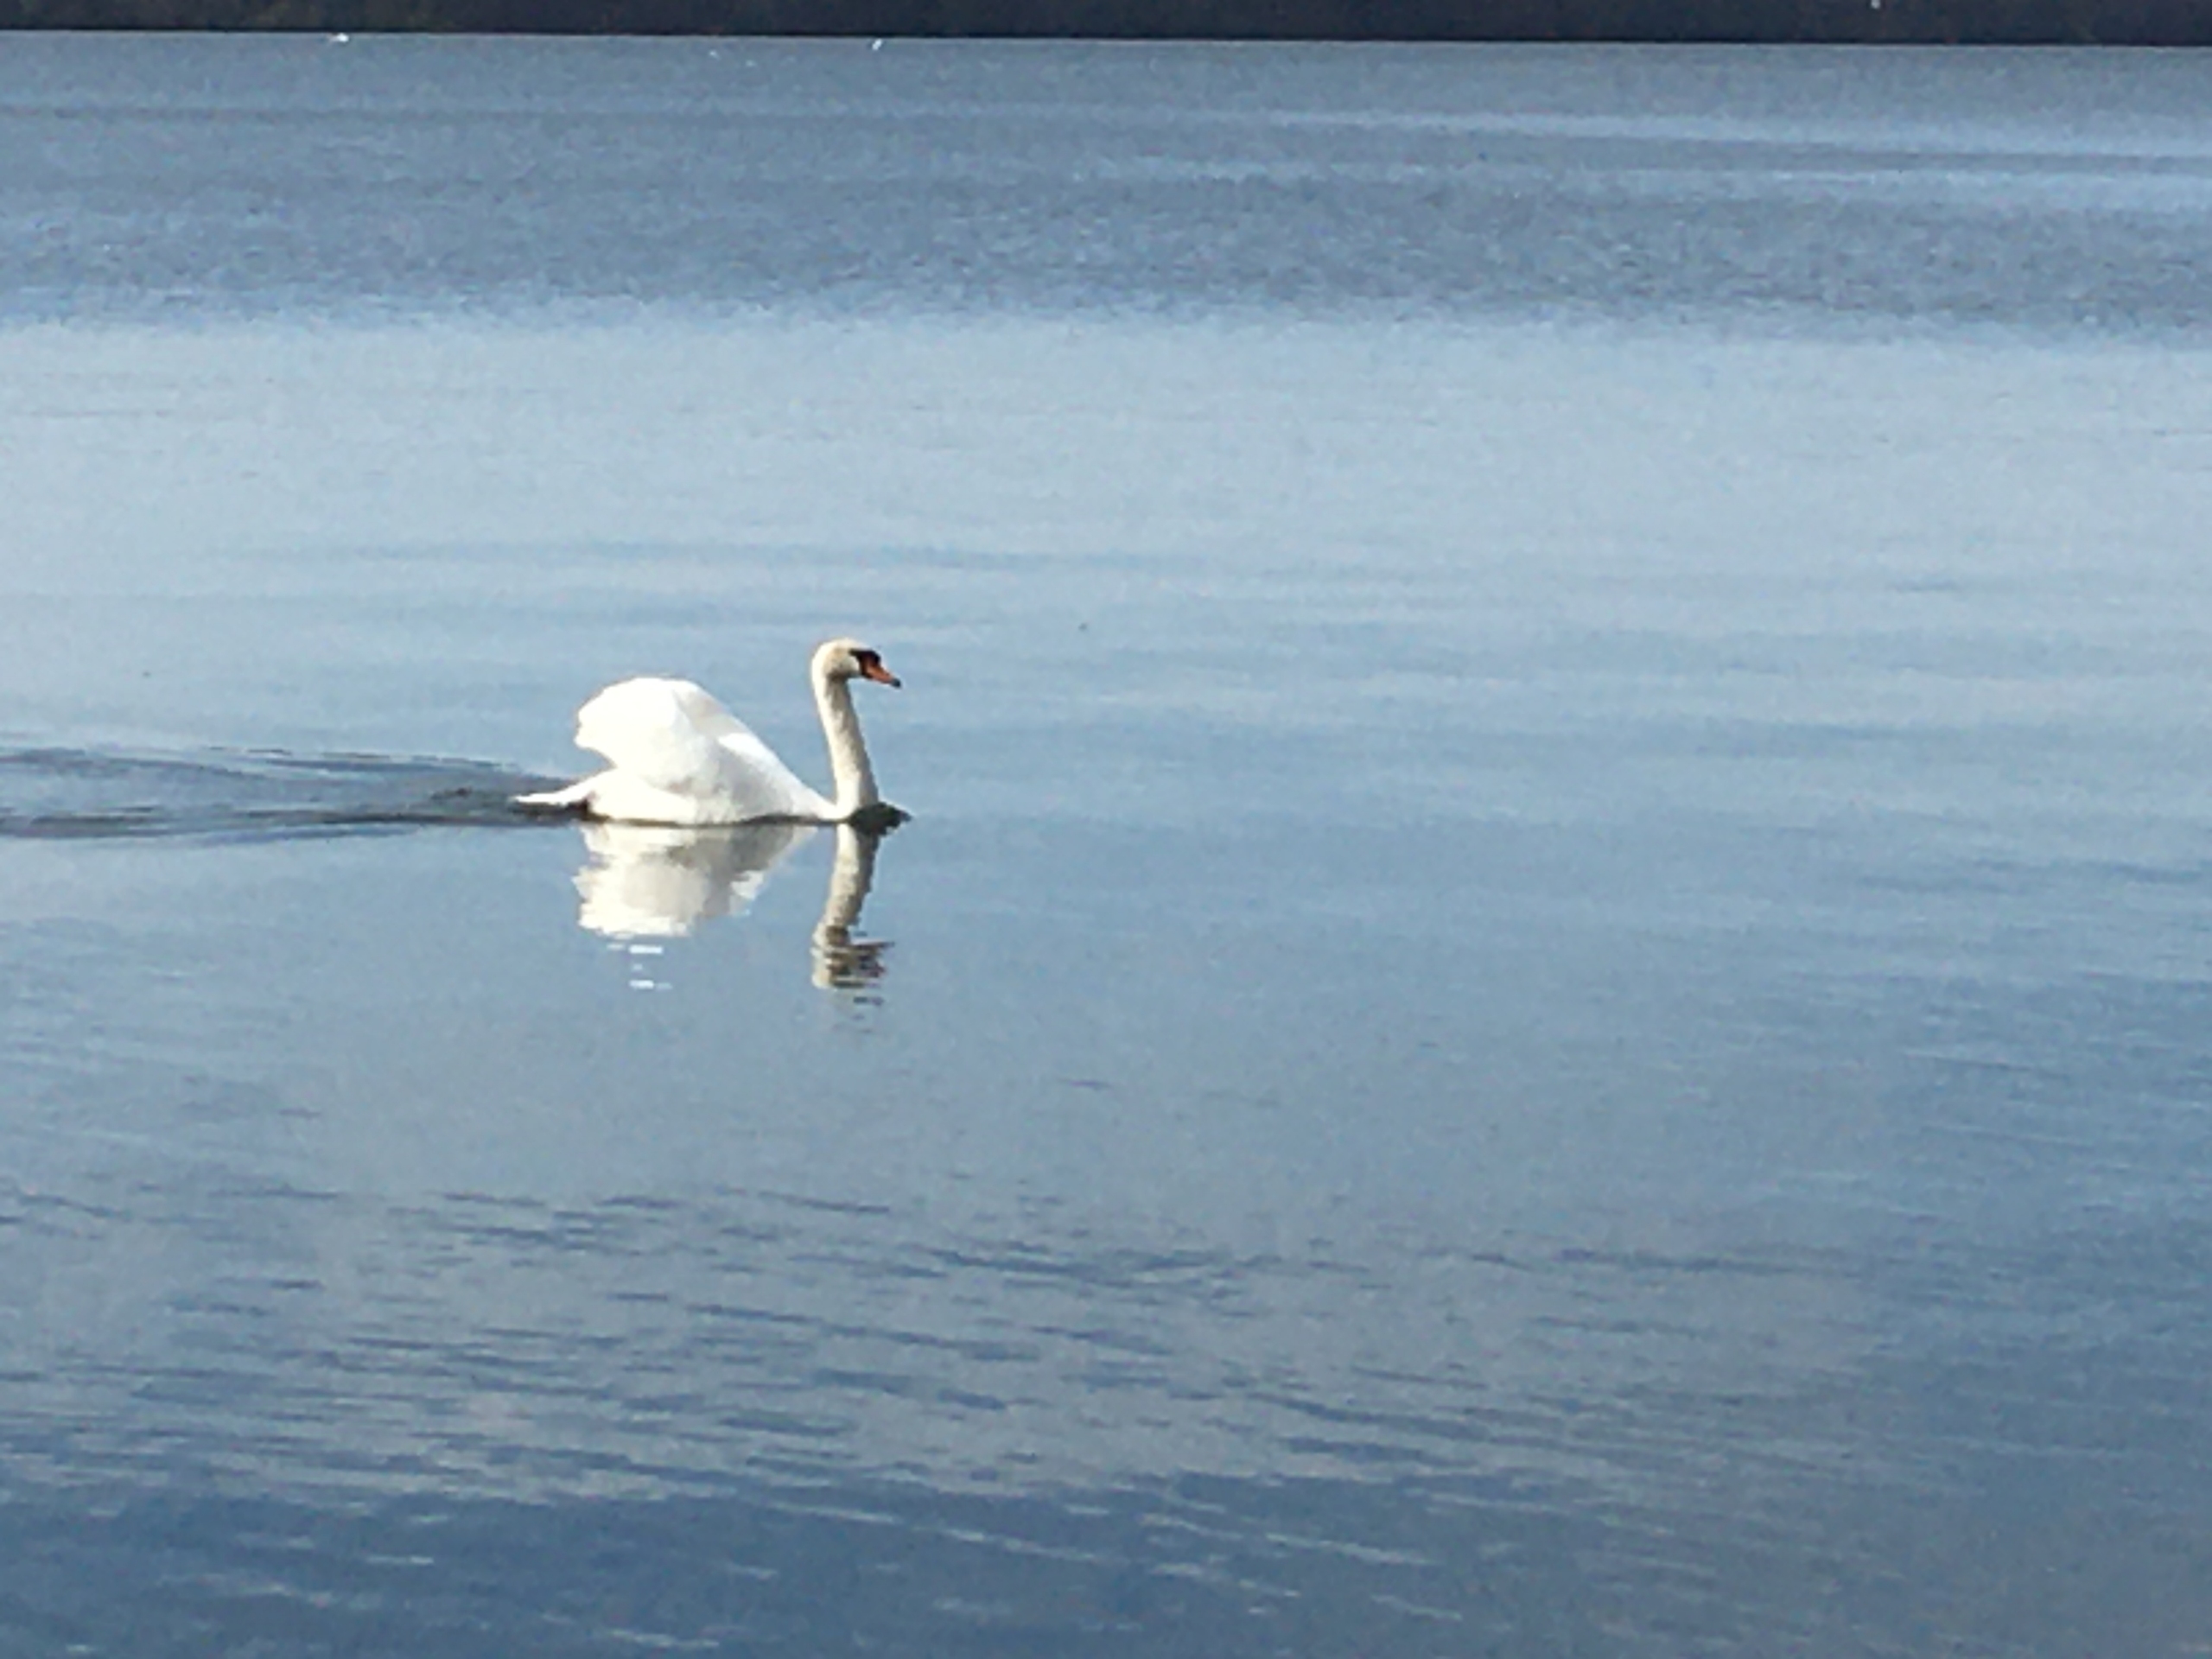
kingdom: Animalia
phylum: Chordata
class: Aves
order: Anseriformes
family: Anatidae
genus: Cygnus
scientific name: Cygnus olor
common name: Knopsvane
